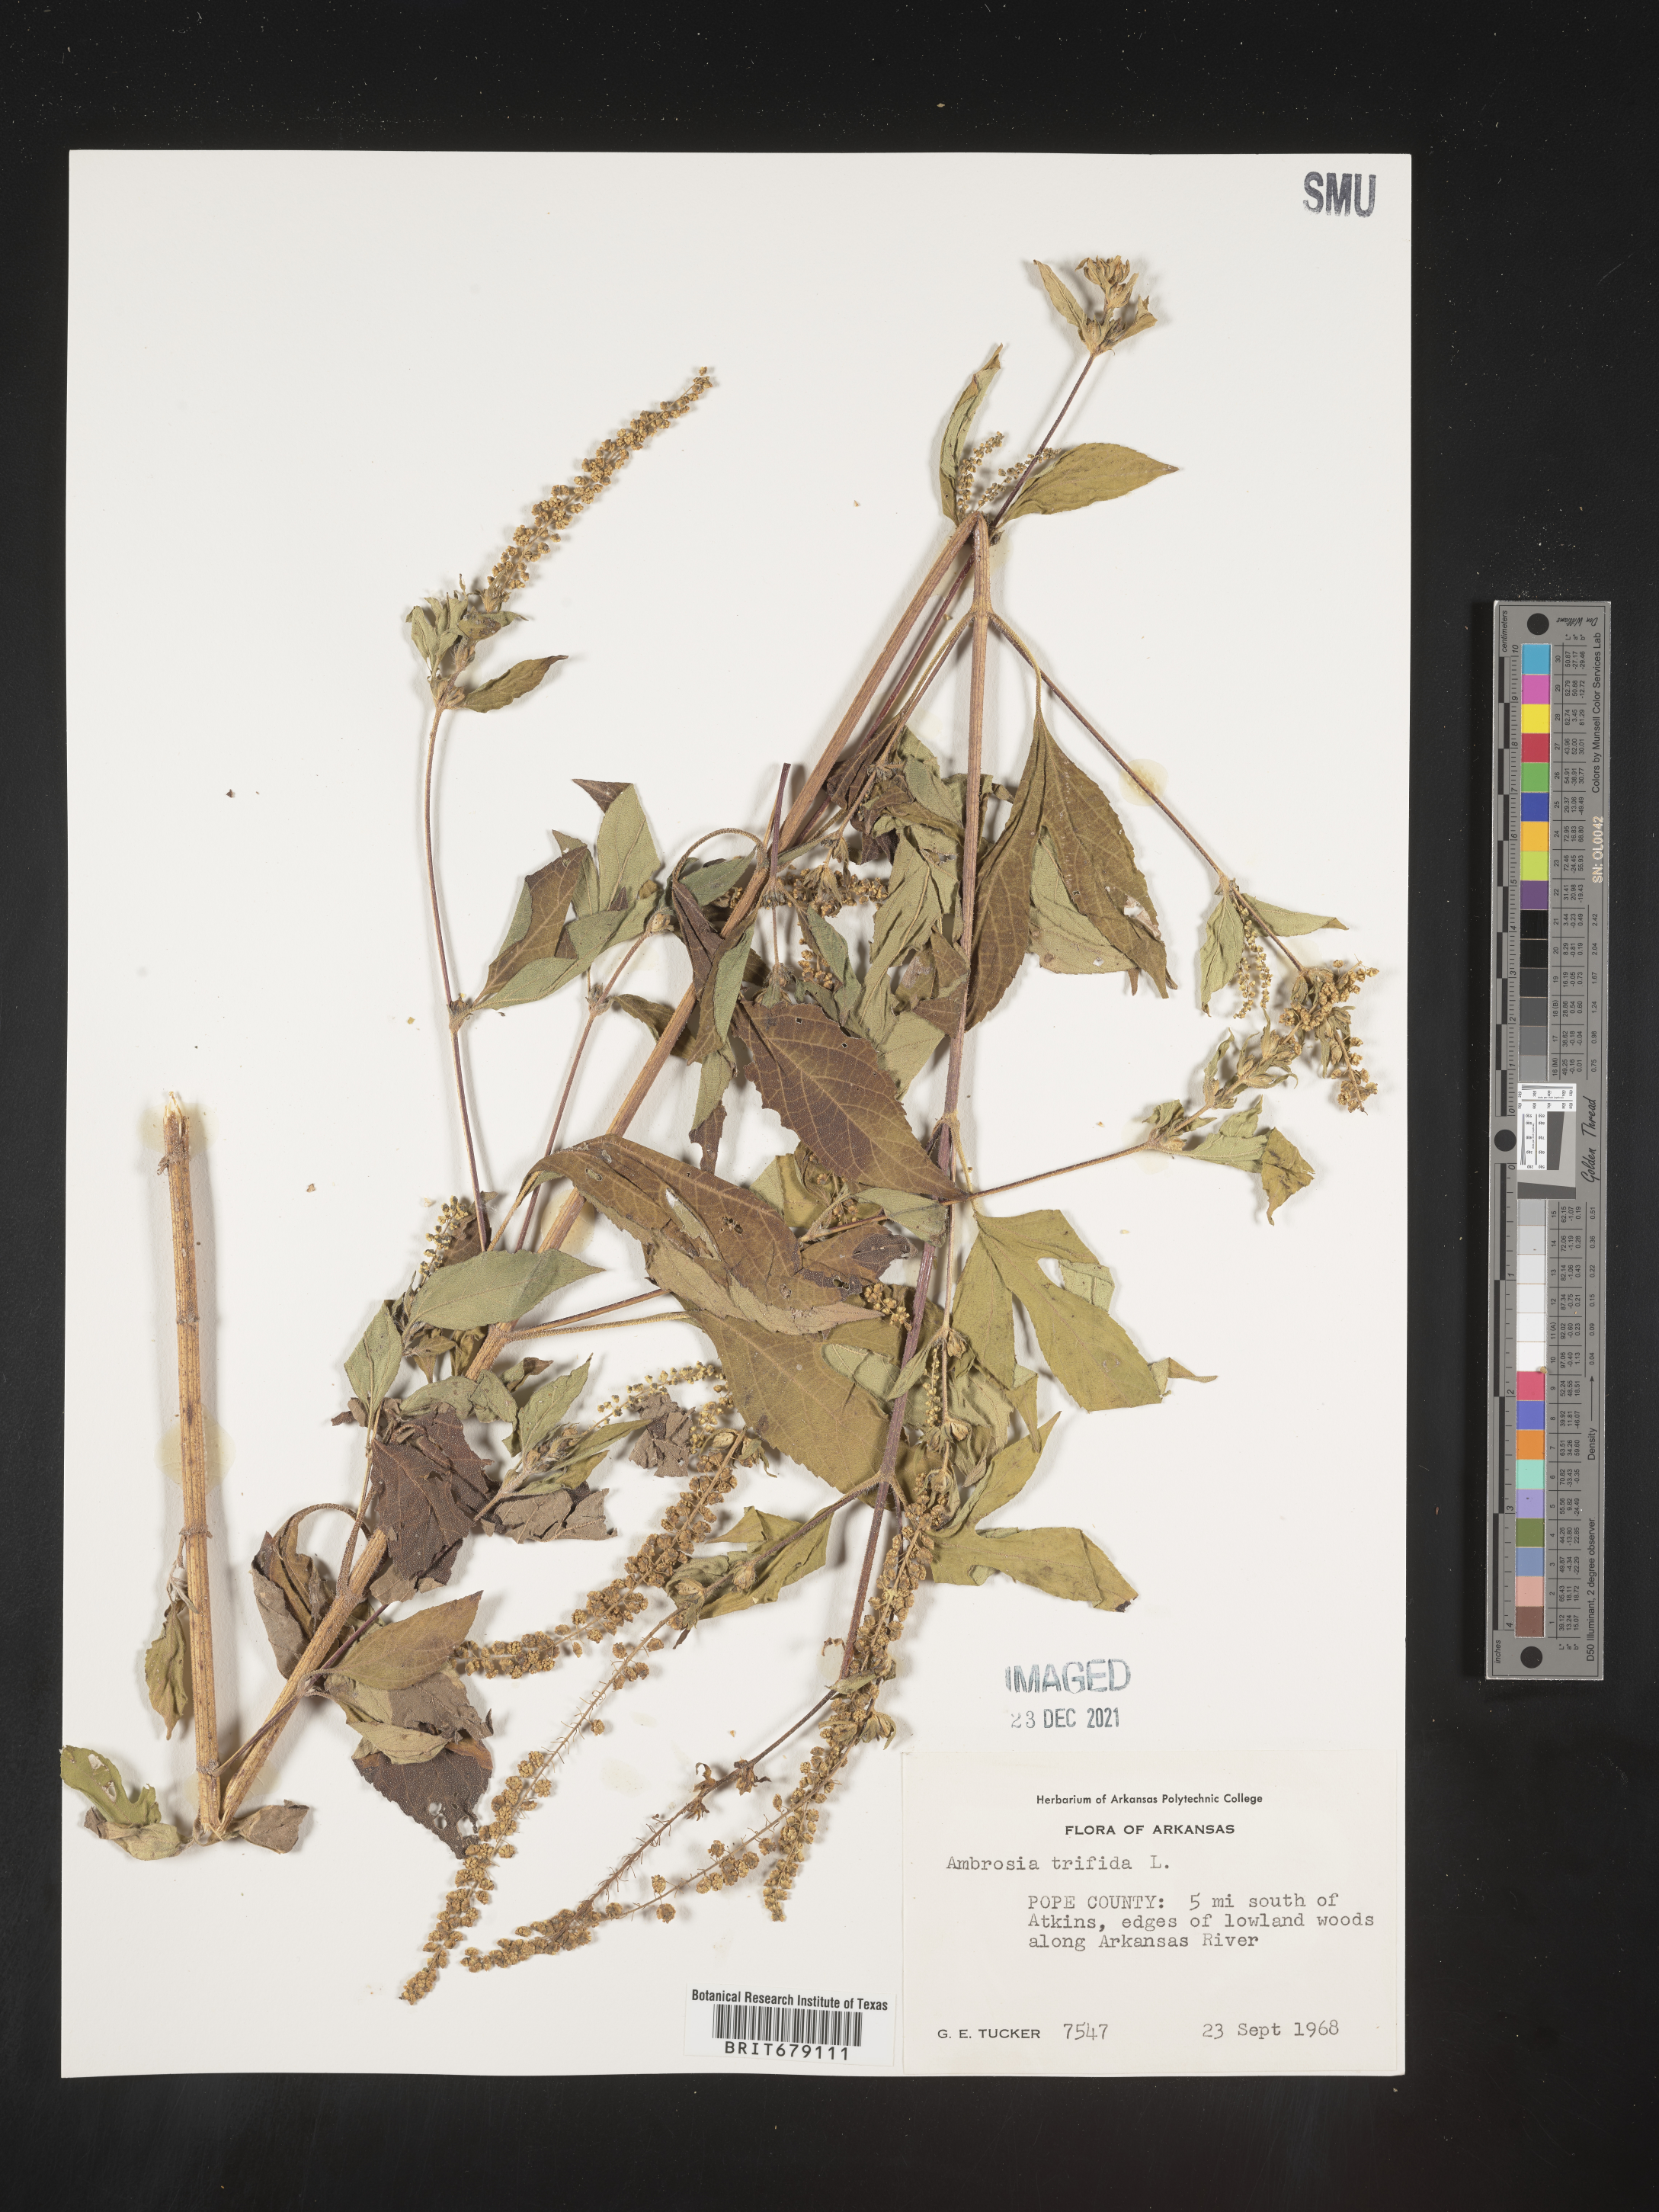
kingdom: Plantae
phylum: Tracheophyta
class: Magnoliopsida
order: Asterales
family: Asteraceae
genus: Ambrosia
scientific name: Ambrosia trifida
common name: Giant ragweed
